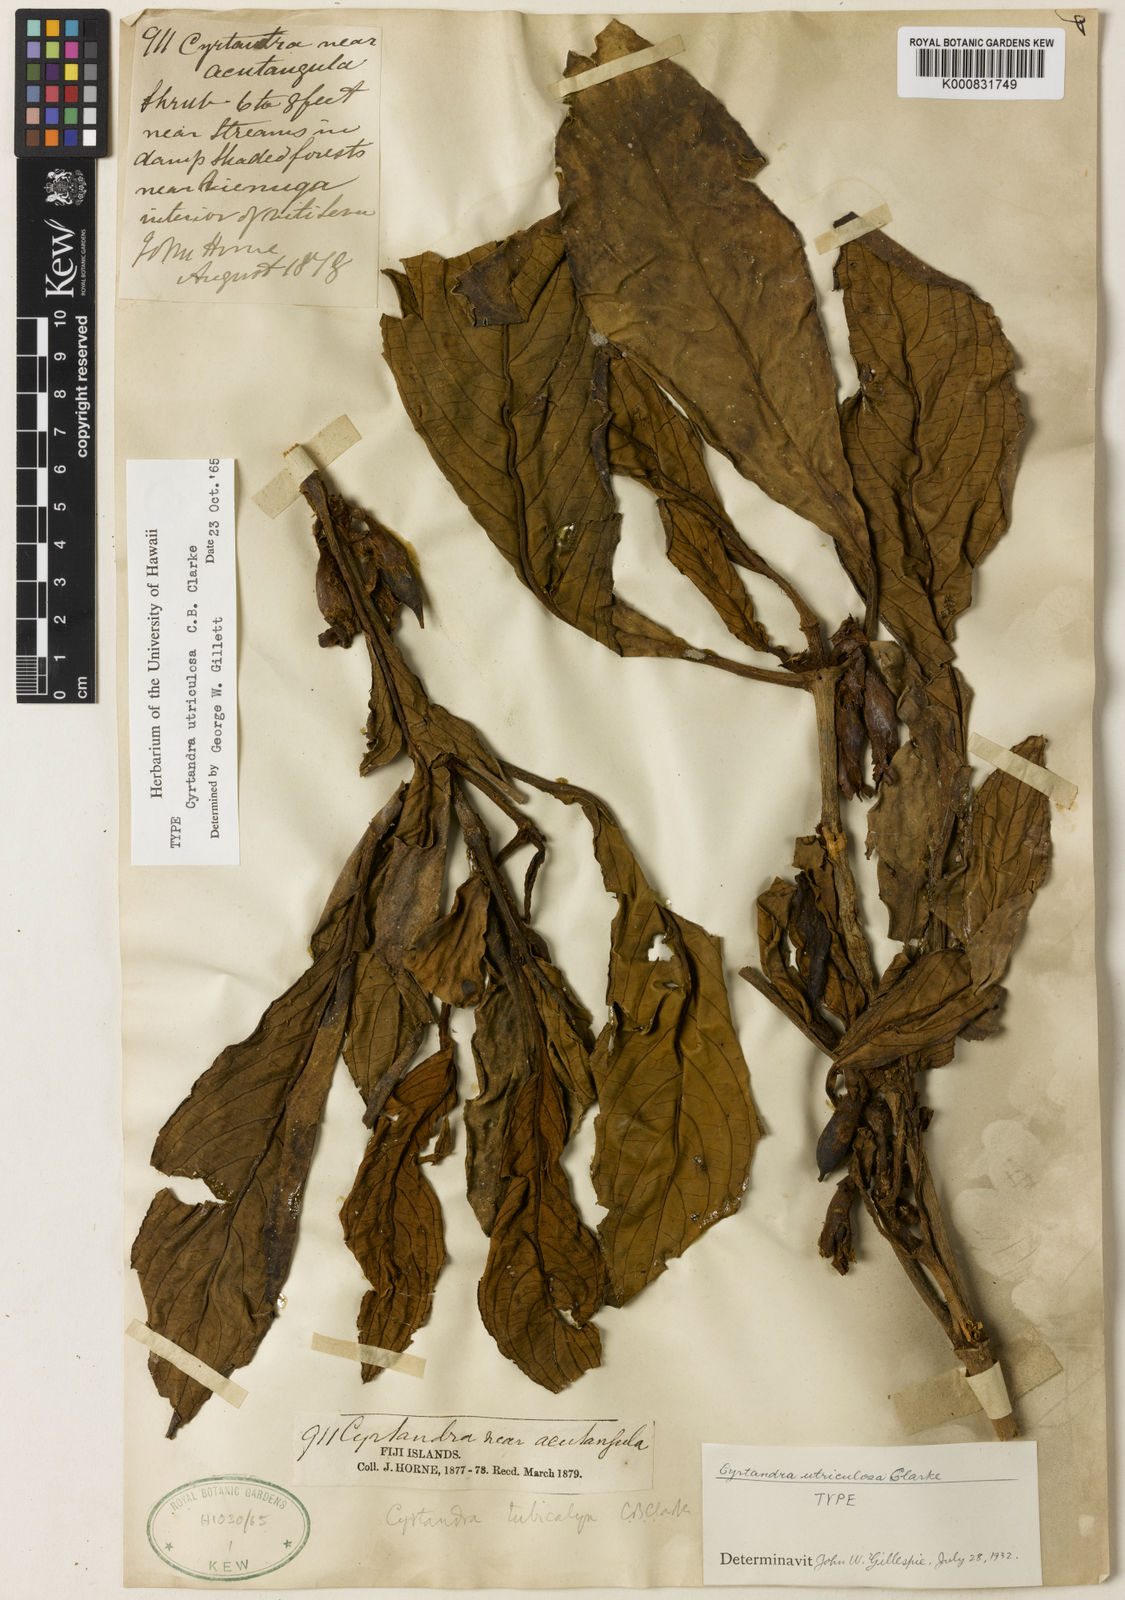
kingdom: Plantae
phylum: Tracheophyta
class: Magnoliopsida
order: Lamiales
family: Gesneriaceae
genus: Cyrtandra
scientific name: Cyrtandra acutangula
